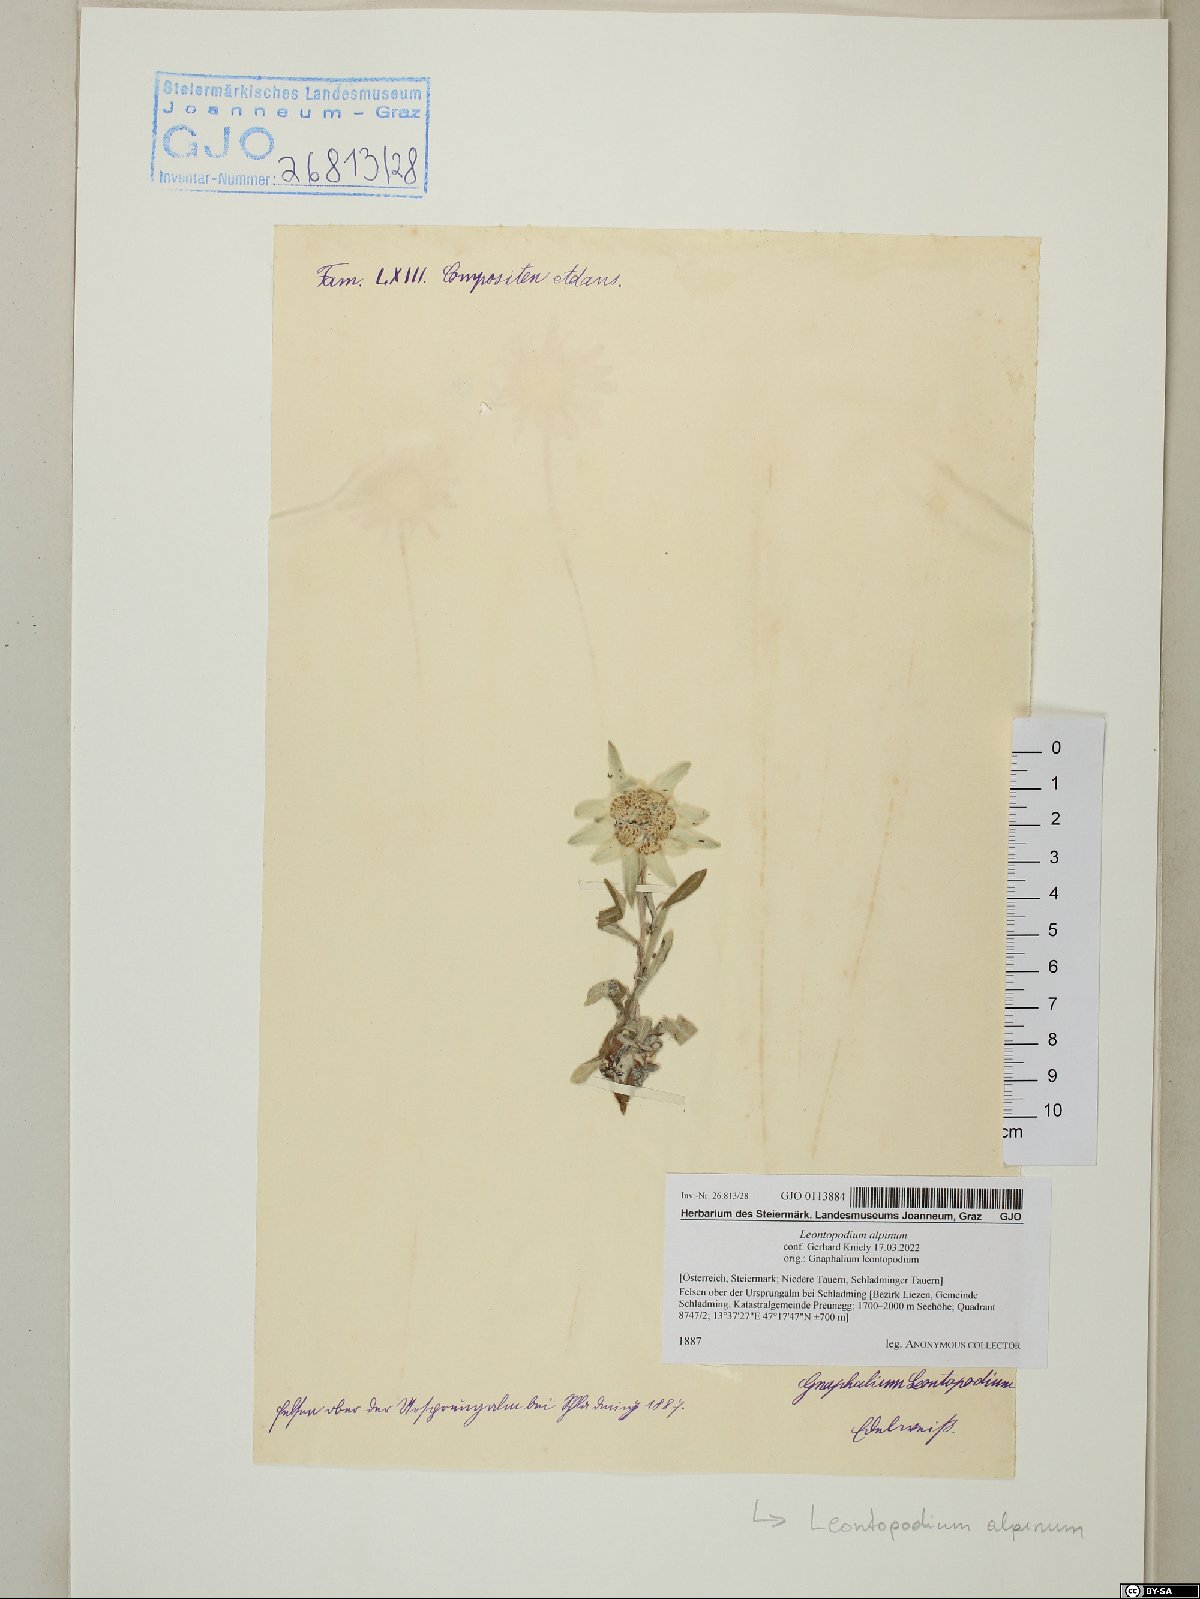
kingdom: Plantae
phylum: Tracheophyta
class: Magnoliopsida
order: Asterales
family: Asteraceae
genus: Leontopodium
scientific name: Leontopodium nivale
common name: Edelweiss
